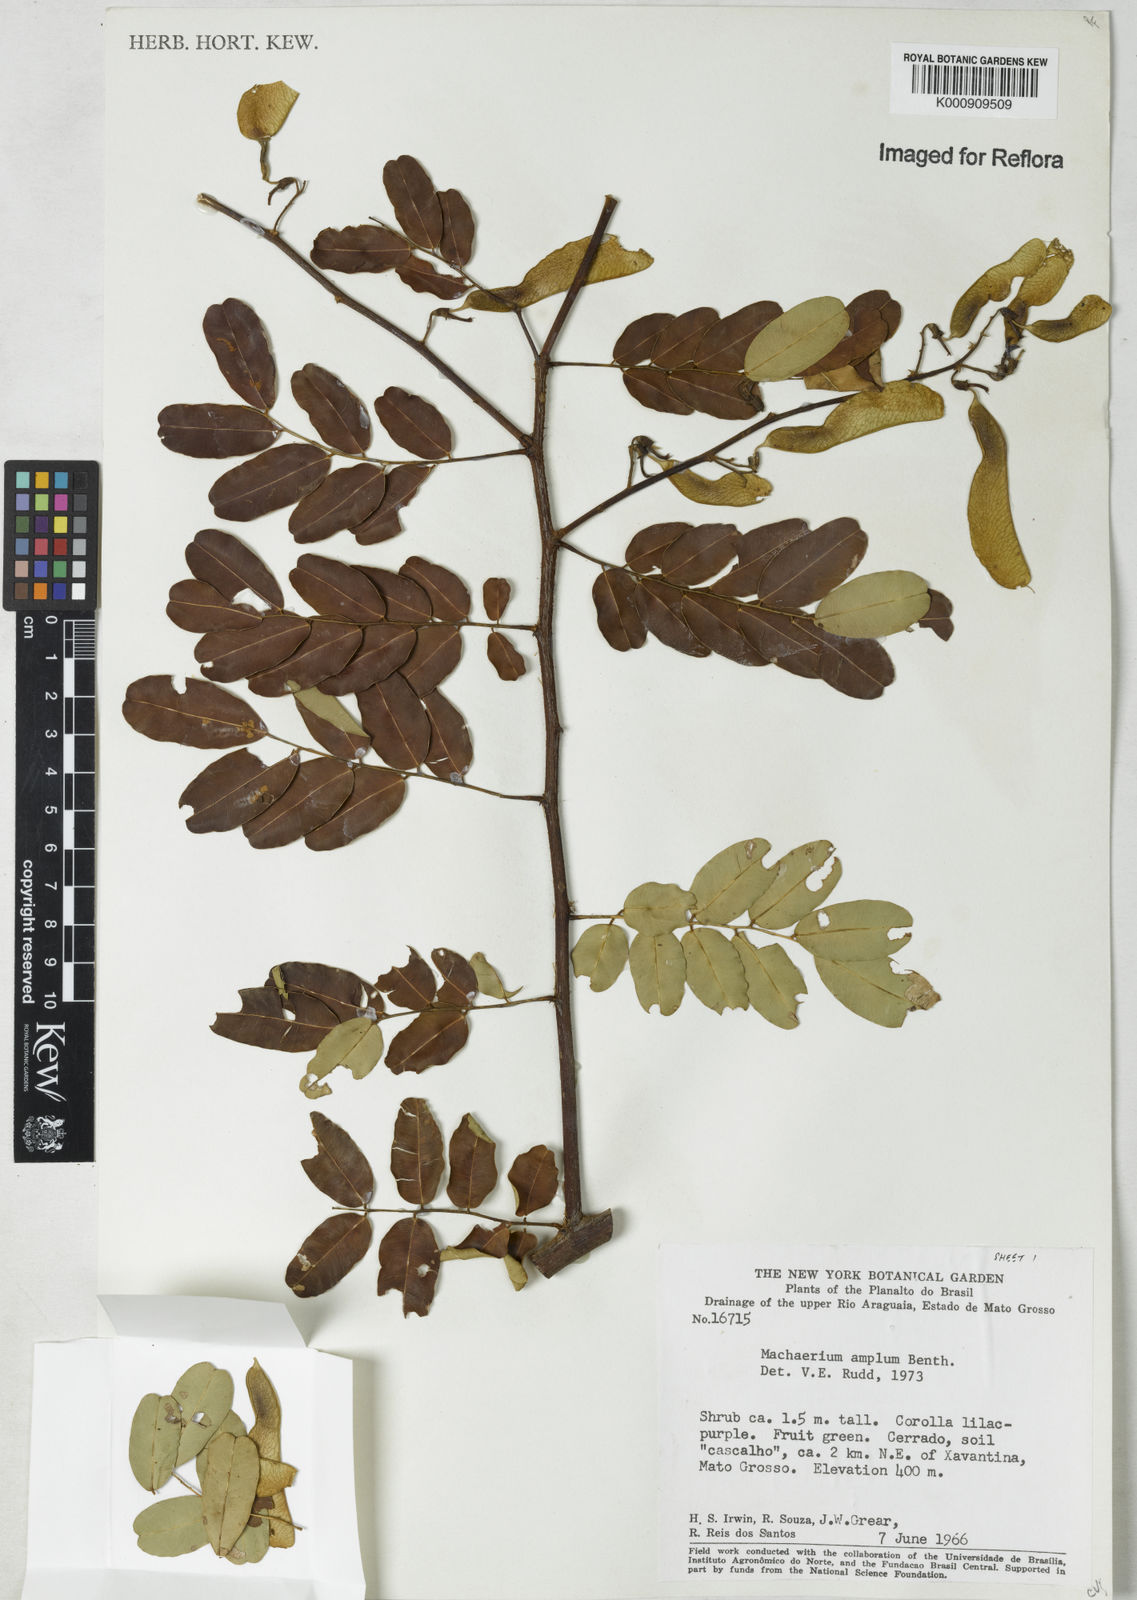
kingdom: Plantae
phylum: Tracheophyta
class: Magnoliopsida
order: Fabales
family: Fabaceae
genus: Machaerium
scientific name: Machaerium amplum
